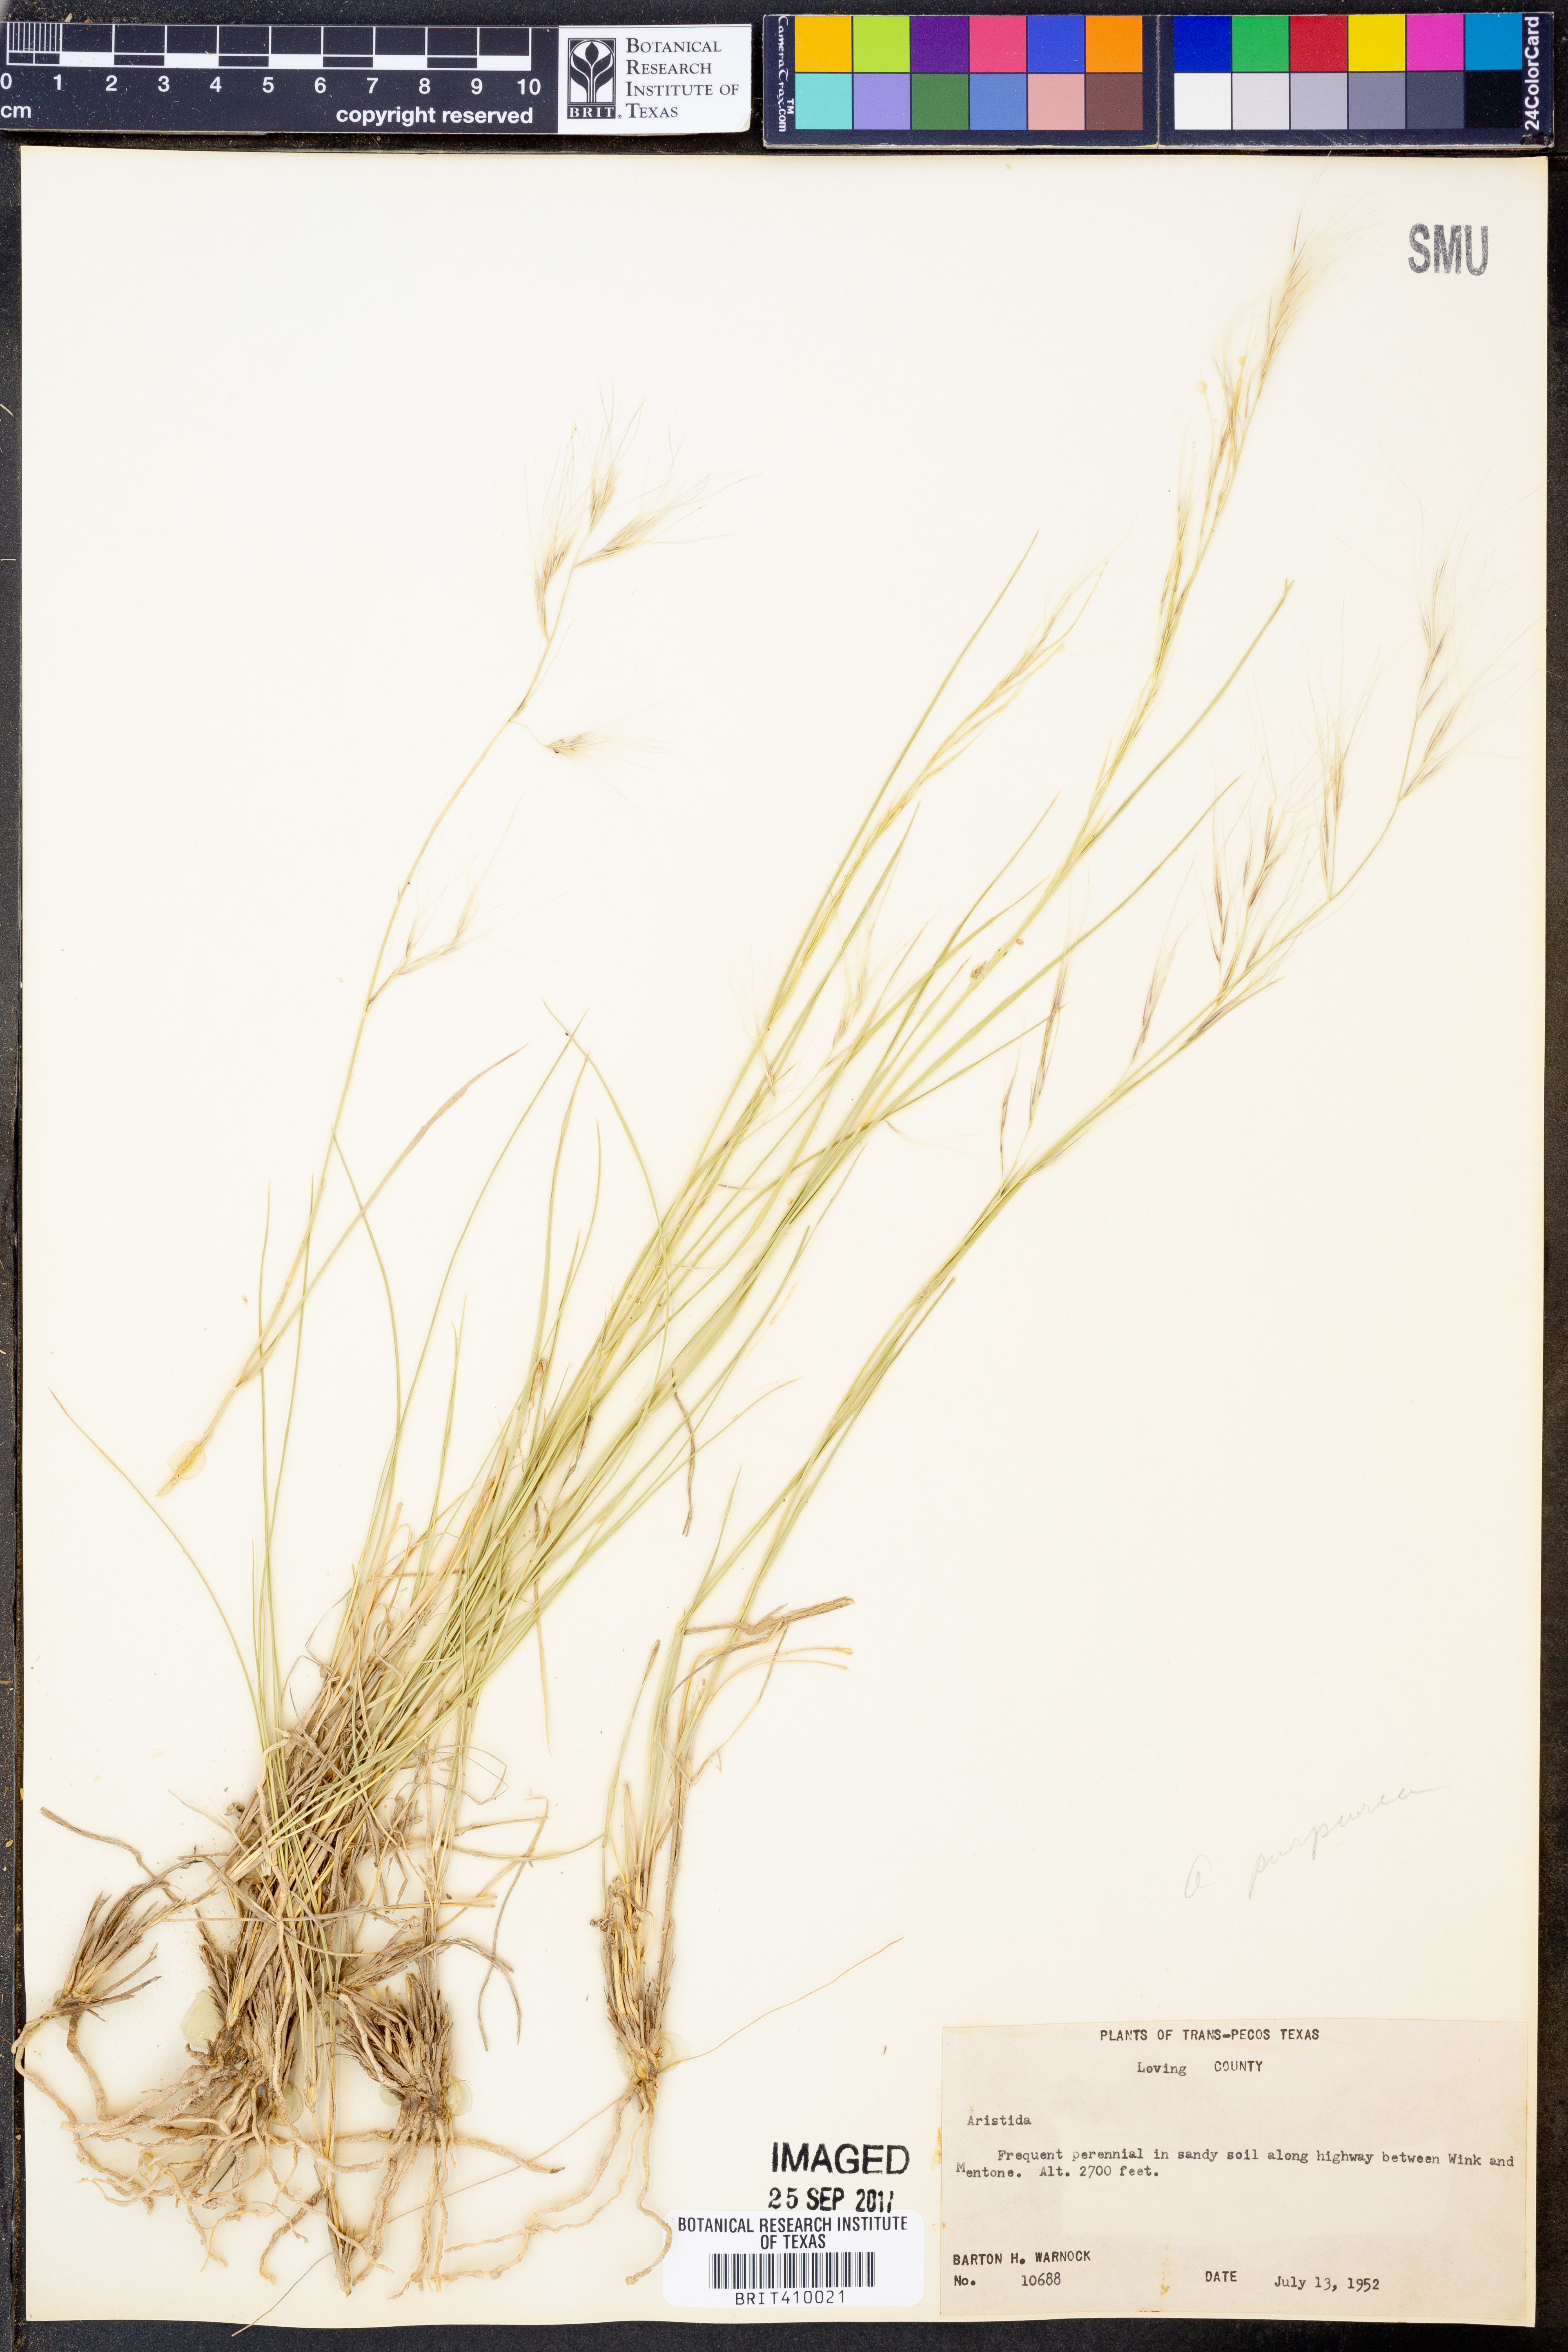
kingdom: Plantae
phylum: Tracheophyta
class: Liliopsida
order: Poales
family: Poaceae
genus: Aristida
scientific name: Aristida purpurea
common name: Purple threeawn
